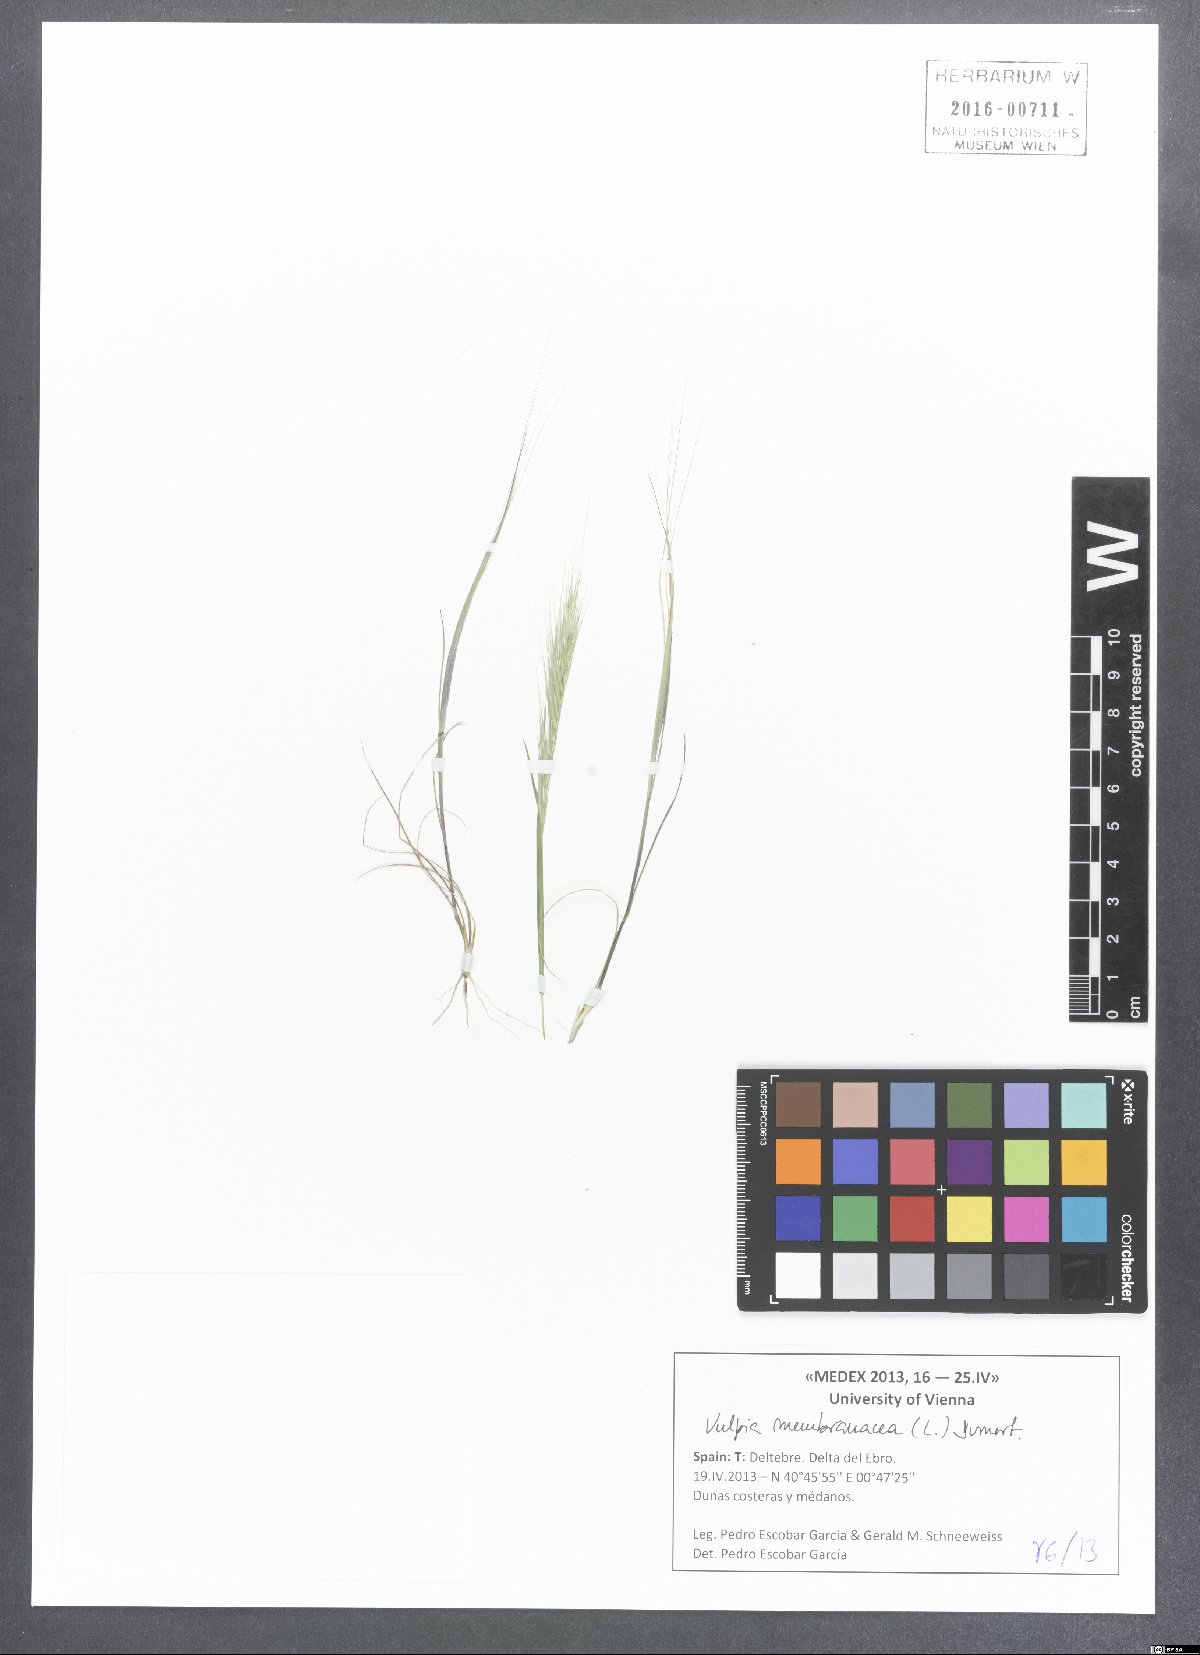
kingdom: Plantae
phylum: Tracheophyta
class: Liliopsida
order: Poales
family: Poaceae
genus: Festuca
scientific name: Festuca membranacea
